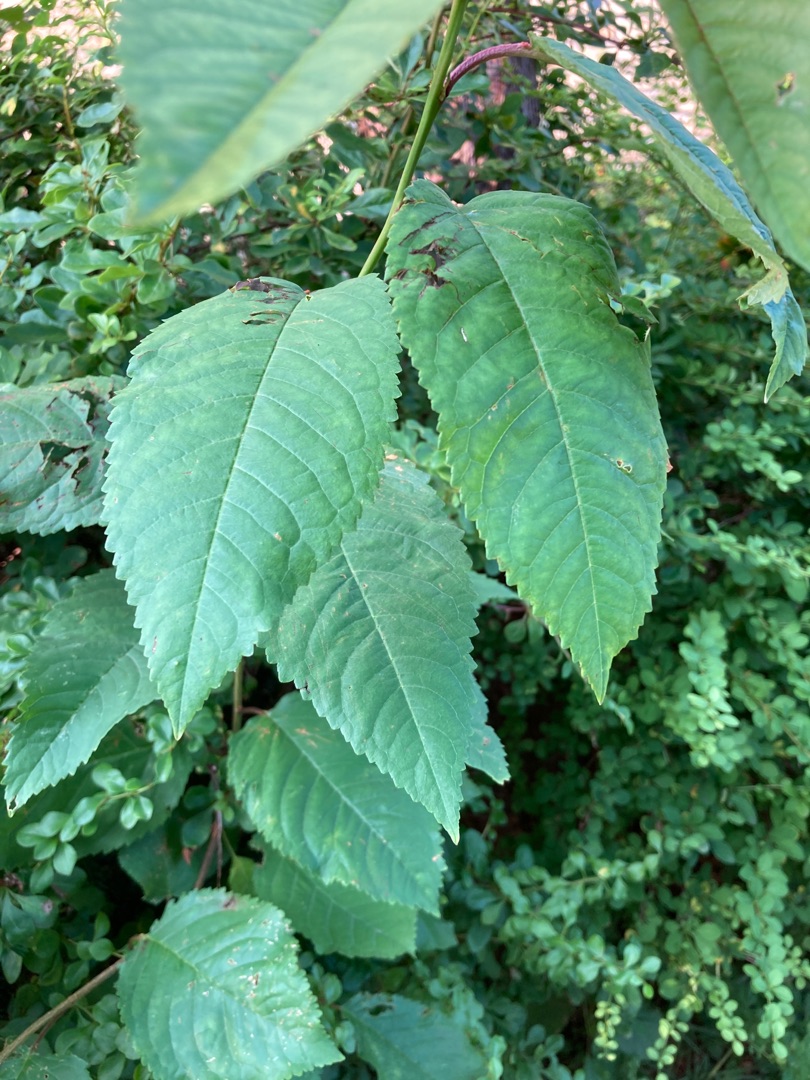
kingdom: Plantae
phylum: Tracheophyta
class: Magnoliopsida
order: Rosales
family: Rosaceae
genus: Prunus
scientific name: Prunus avium
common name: Fugle-kirsebær
